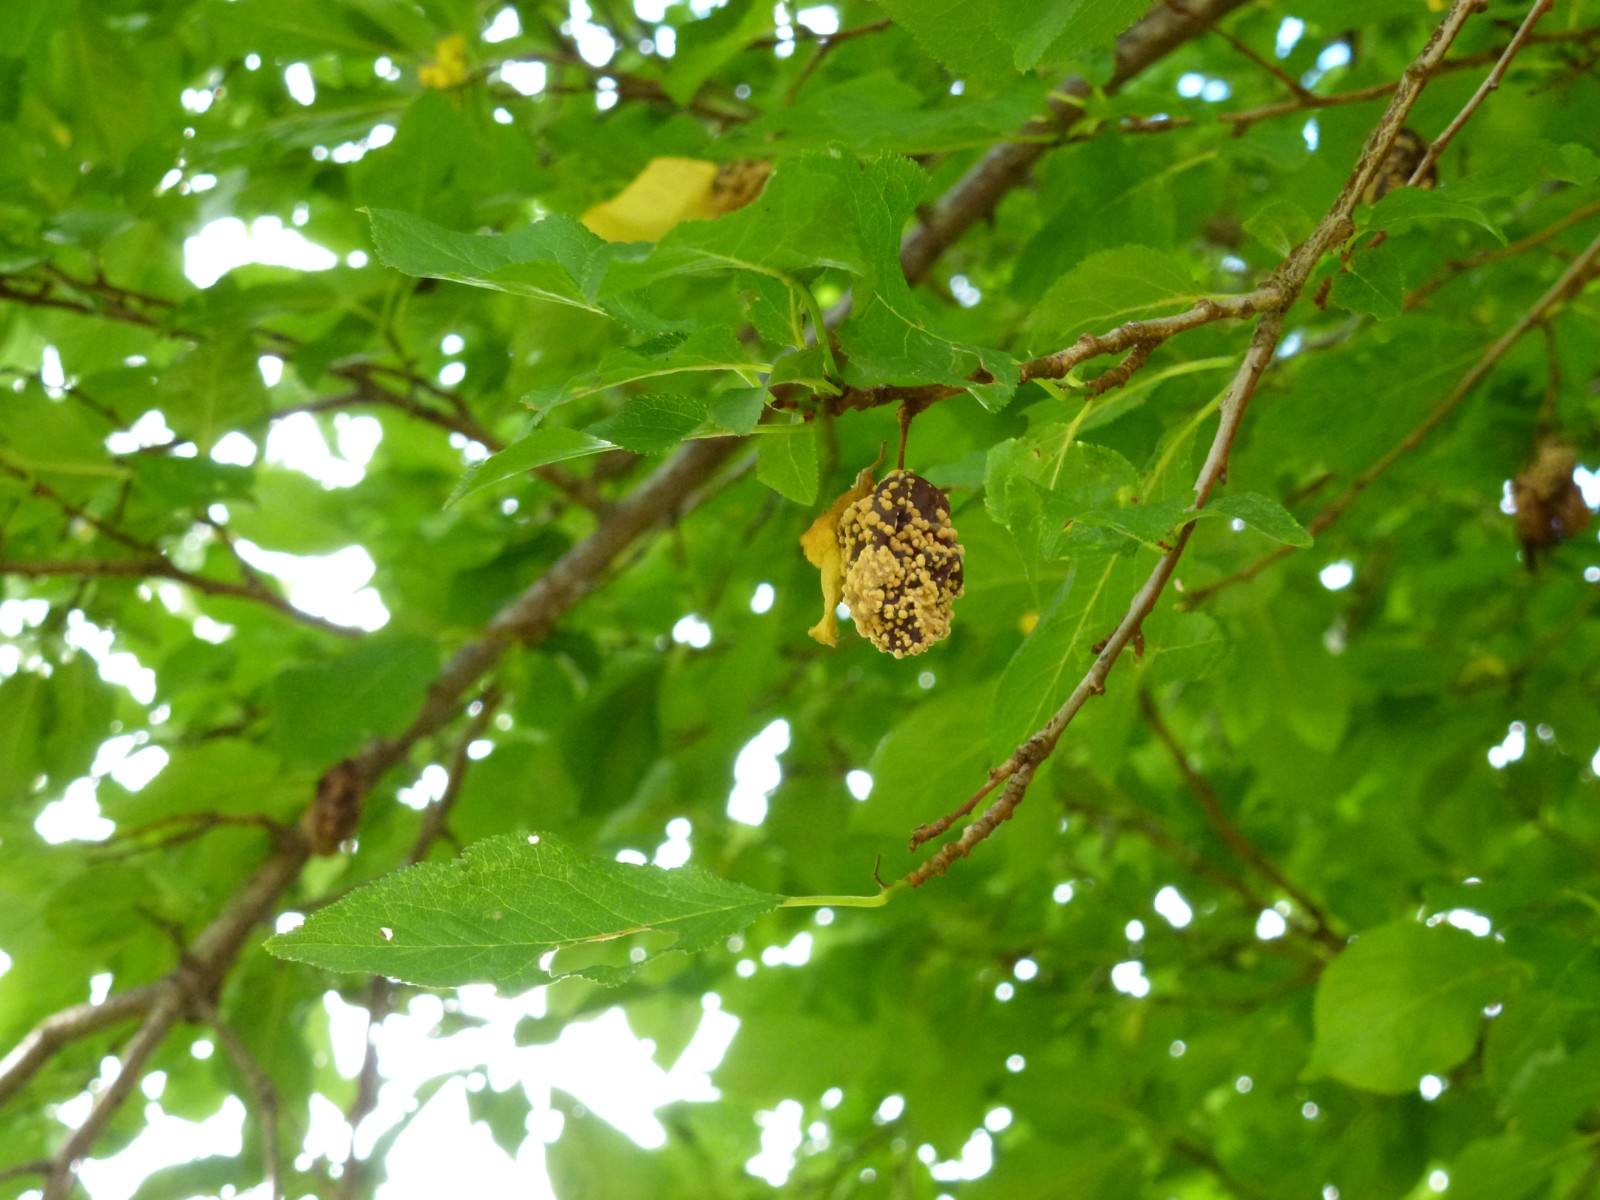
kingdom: Fungi
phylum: Ascomycota
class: Leotiomycetes
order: Helotiales
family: Sclerotiniaceae
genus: Monilinia
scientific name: Monilinia laxa
